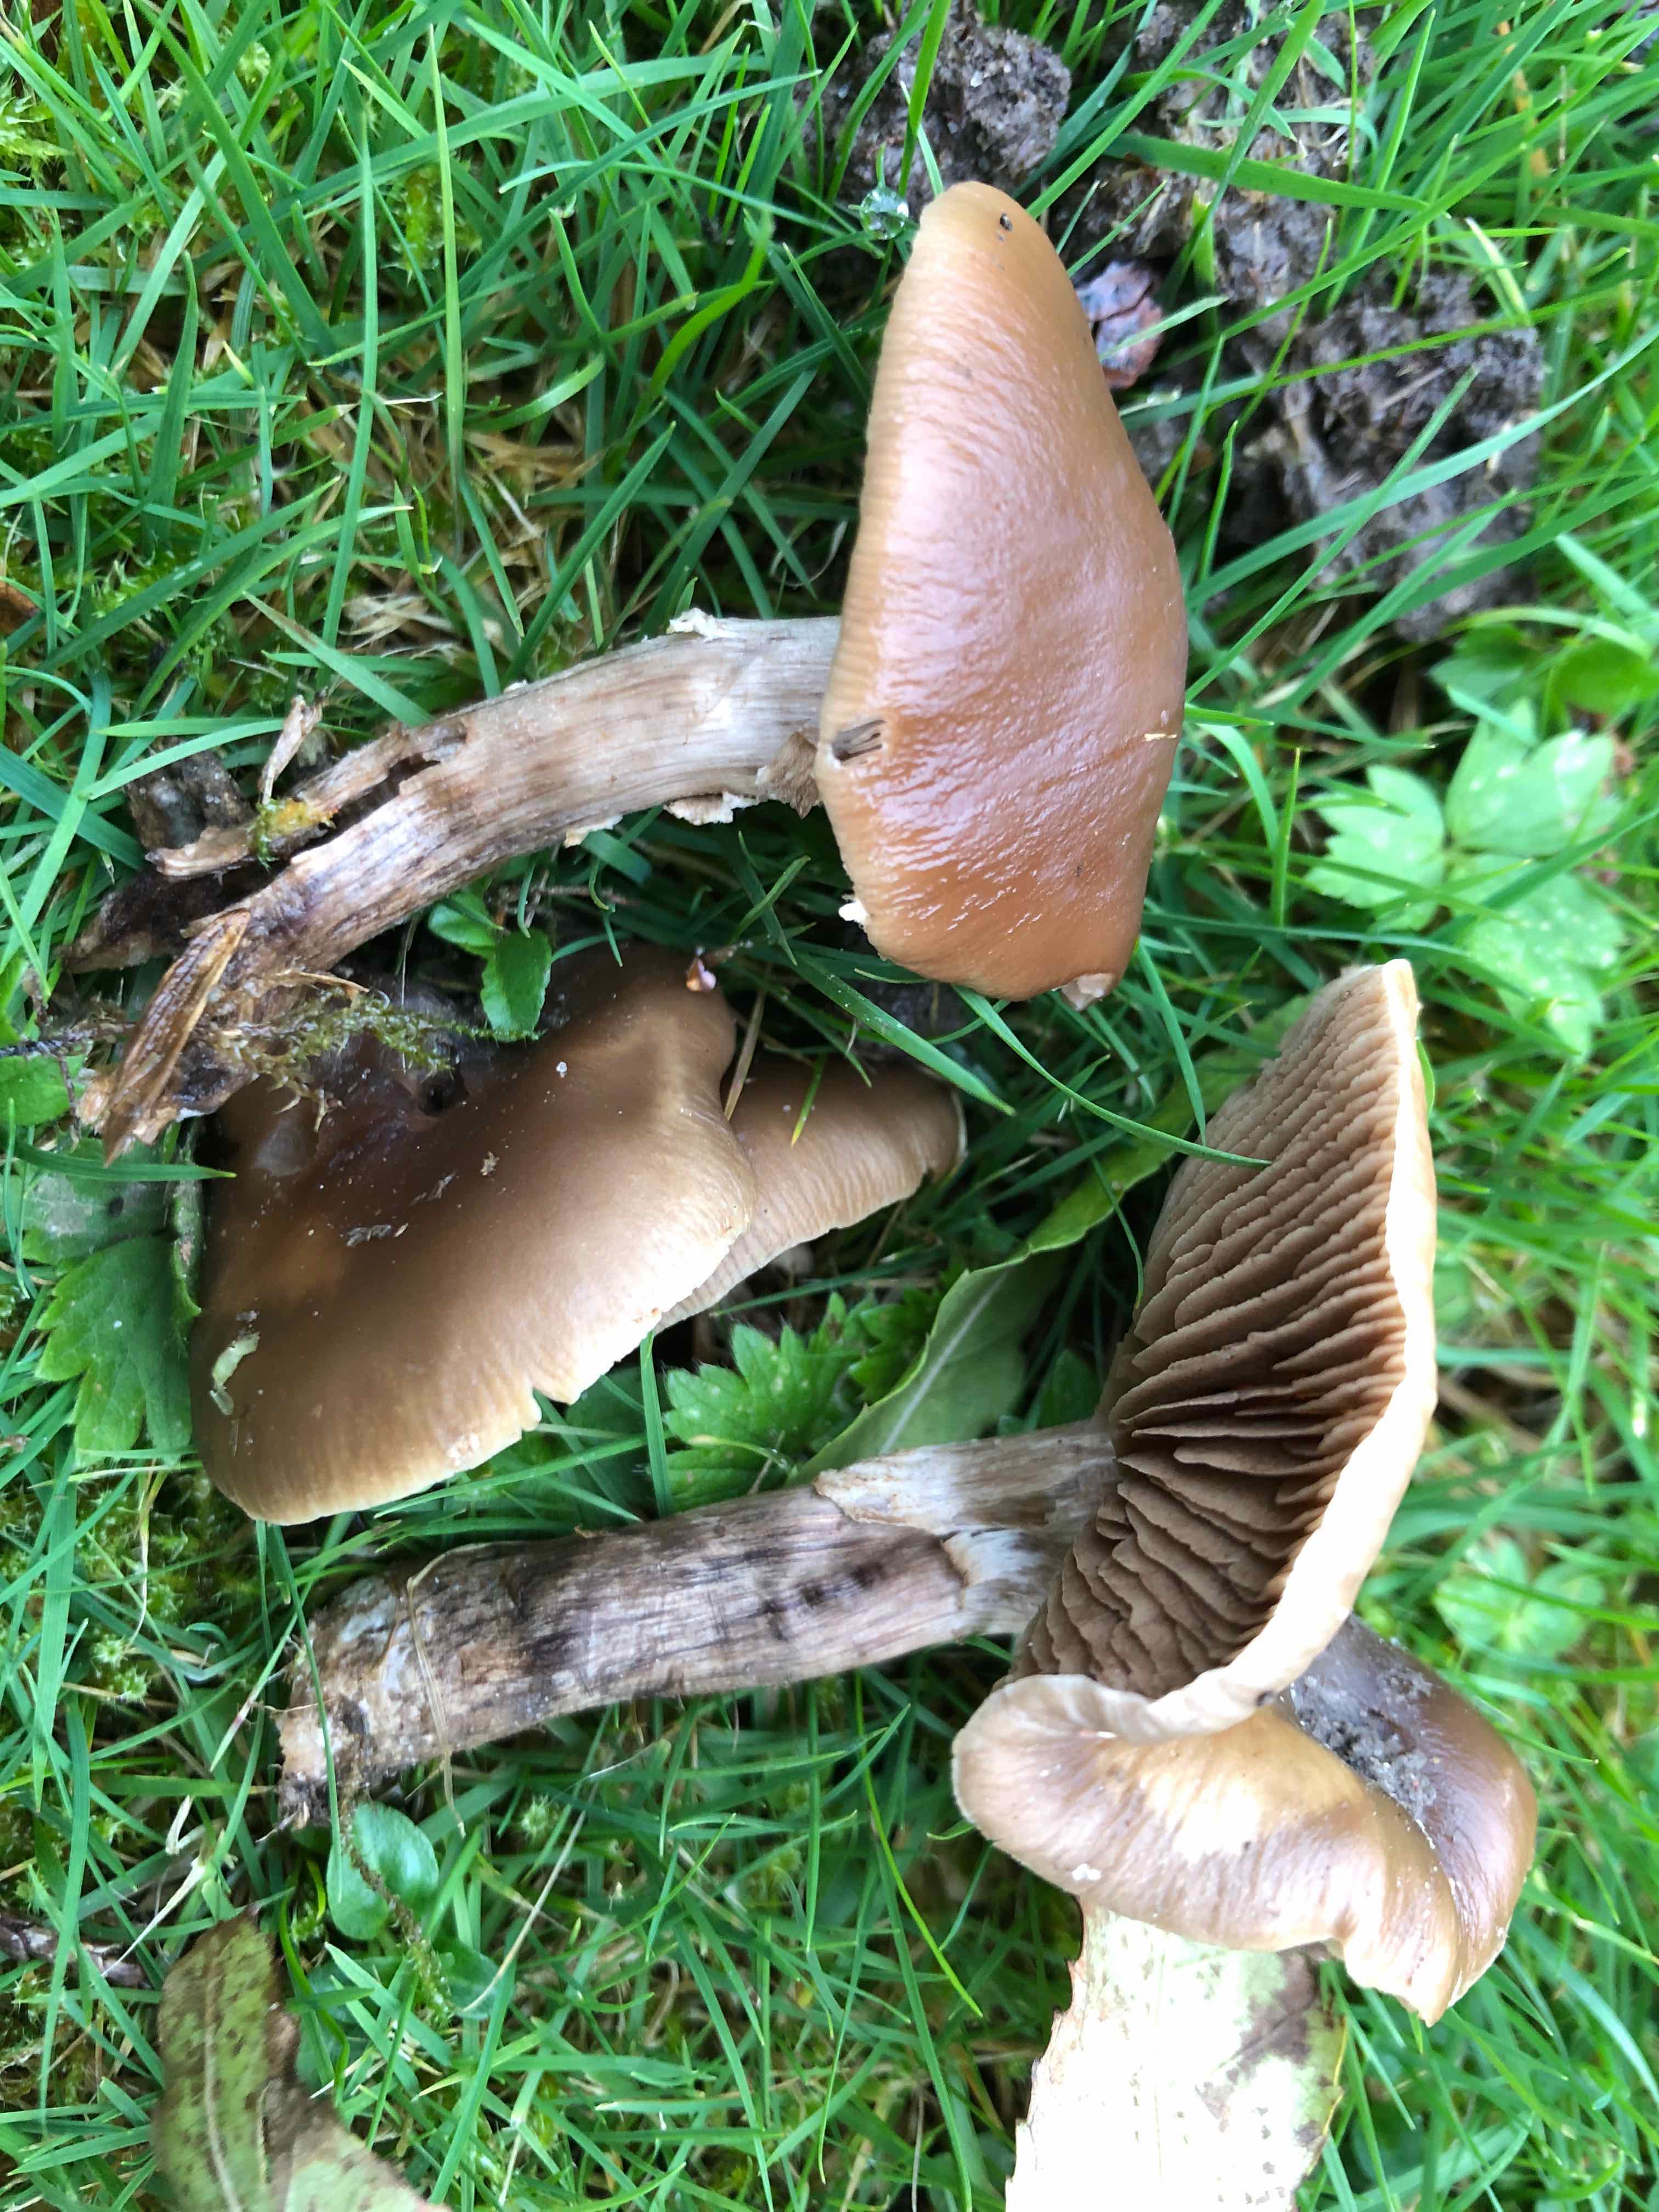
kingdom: Fungi
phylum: Basidiomycota
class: Agaricomycetes
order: Agaricales
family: Tubariaceae
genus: Cyclocybe
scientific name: Cyclocybe erebia
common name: mørk agerhat
